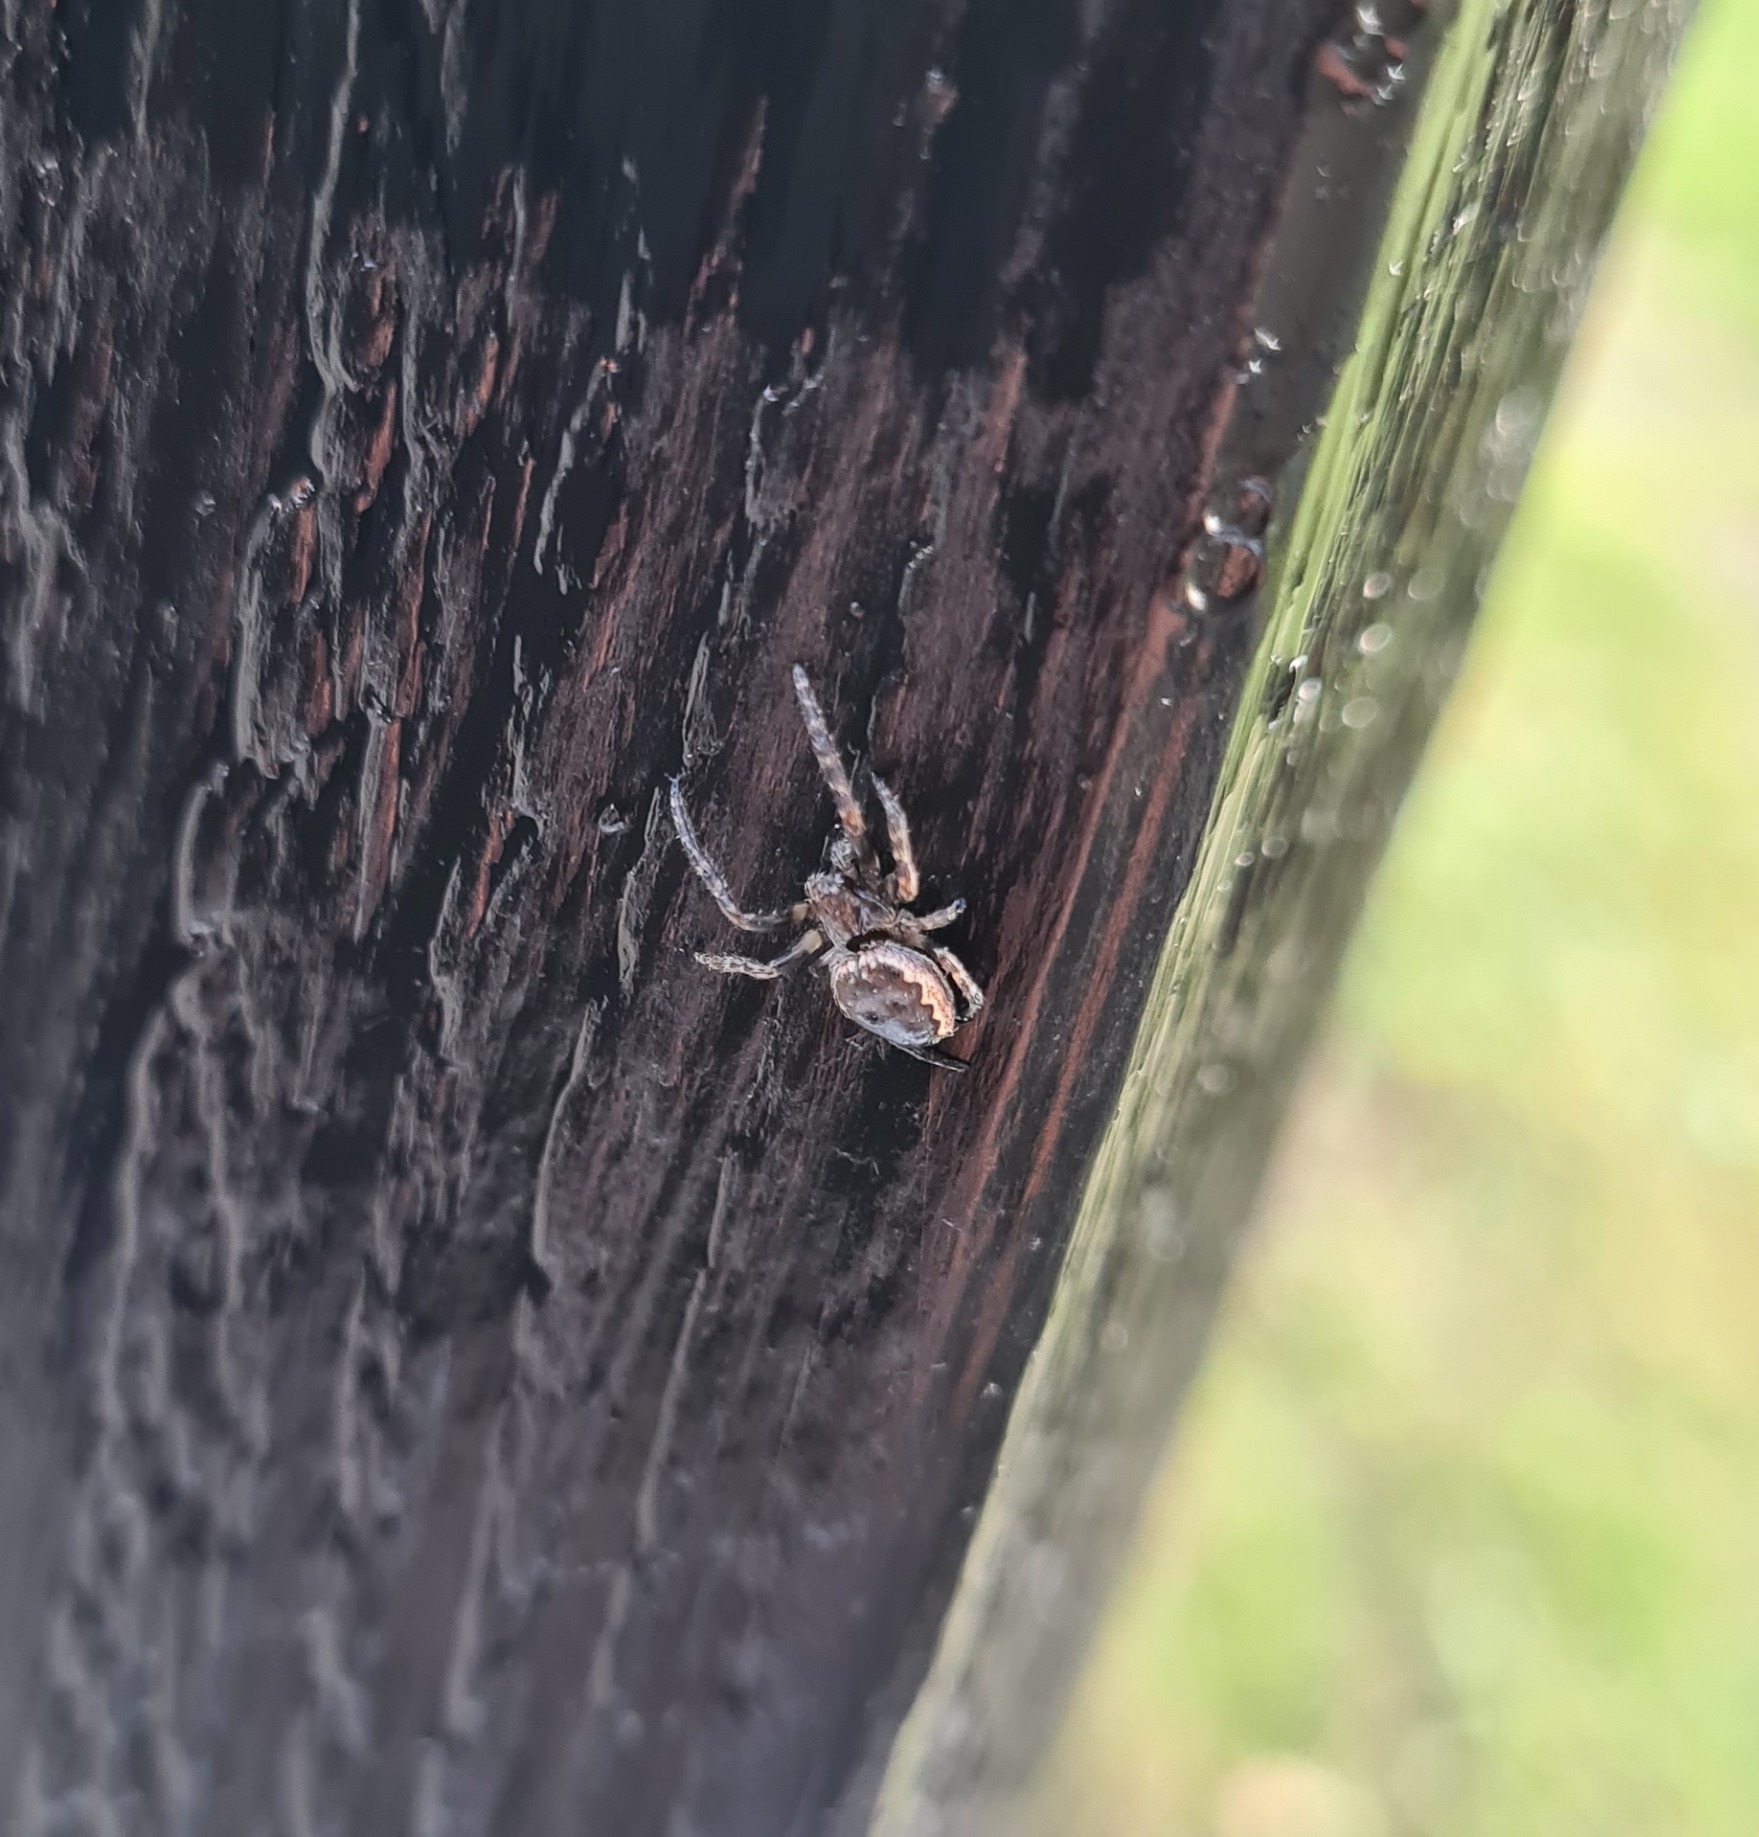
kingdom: Animalia
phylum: Arthropoda
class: Arachnida
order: Araneae
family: Araneidae
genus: Nuctenea
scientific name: Nuctenea umbratica
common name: Flad hjulspinder
